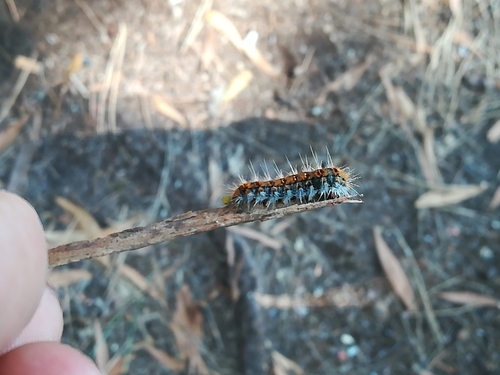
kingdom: Animalia
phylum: Arthropoda
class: Insecta
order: Lepidoptera
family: Notodontidae
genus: Thaumetopoea
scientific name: Thaumetopoea pityocampa
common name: Pine processionary
